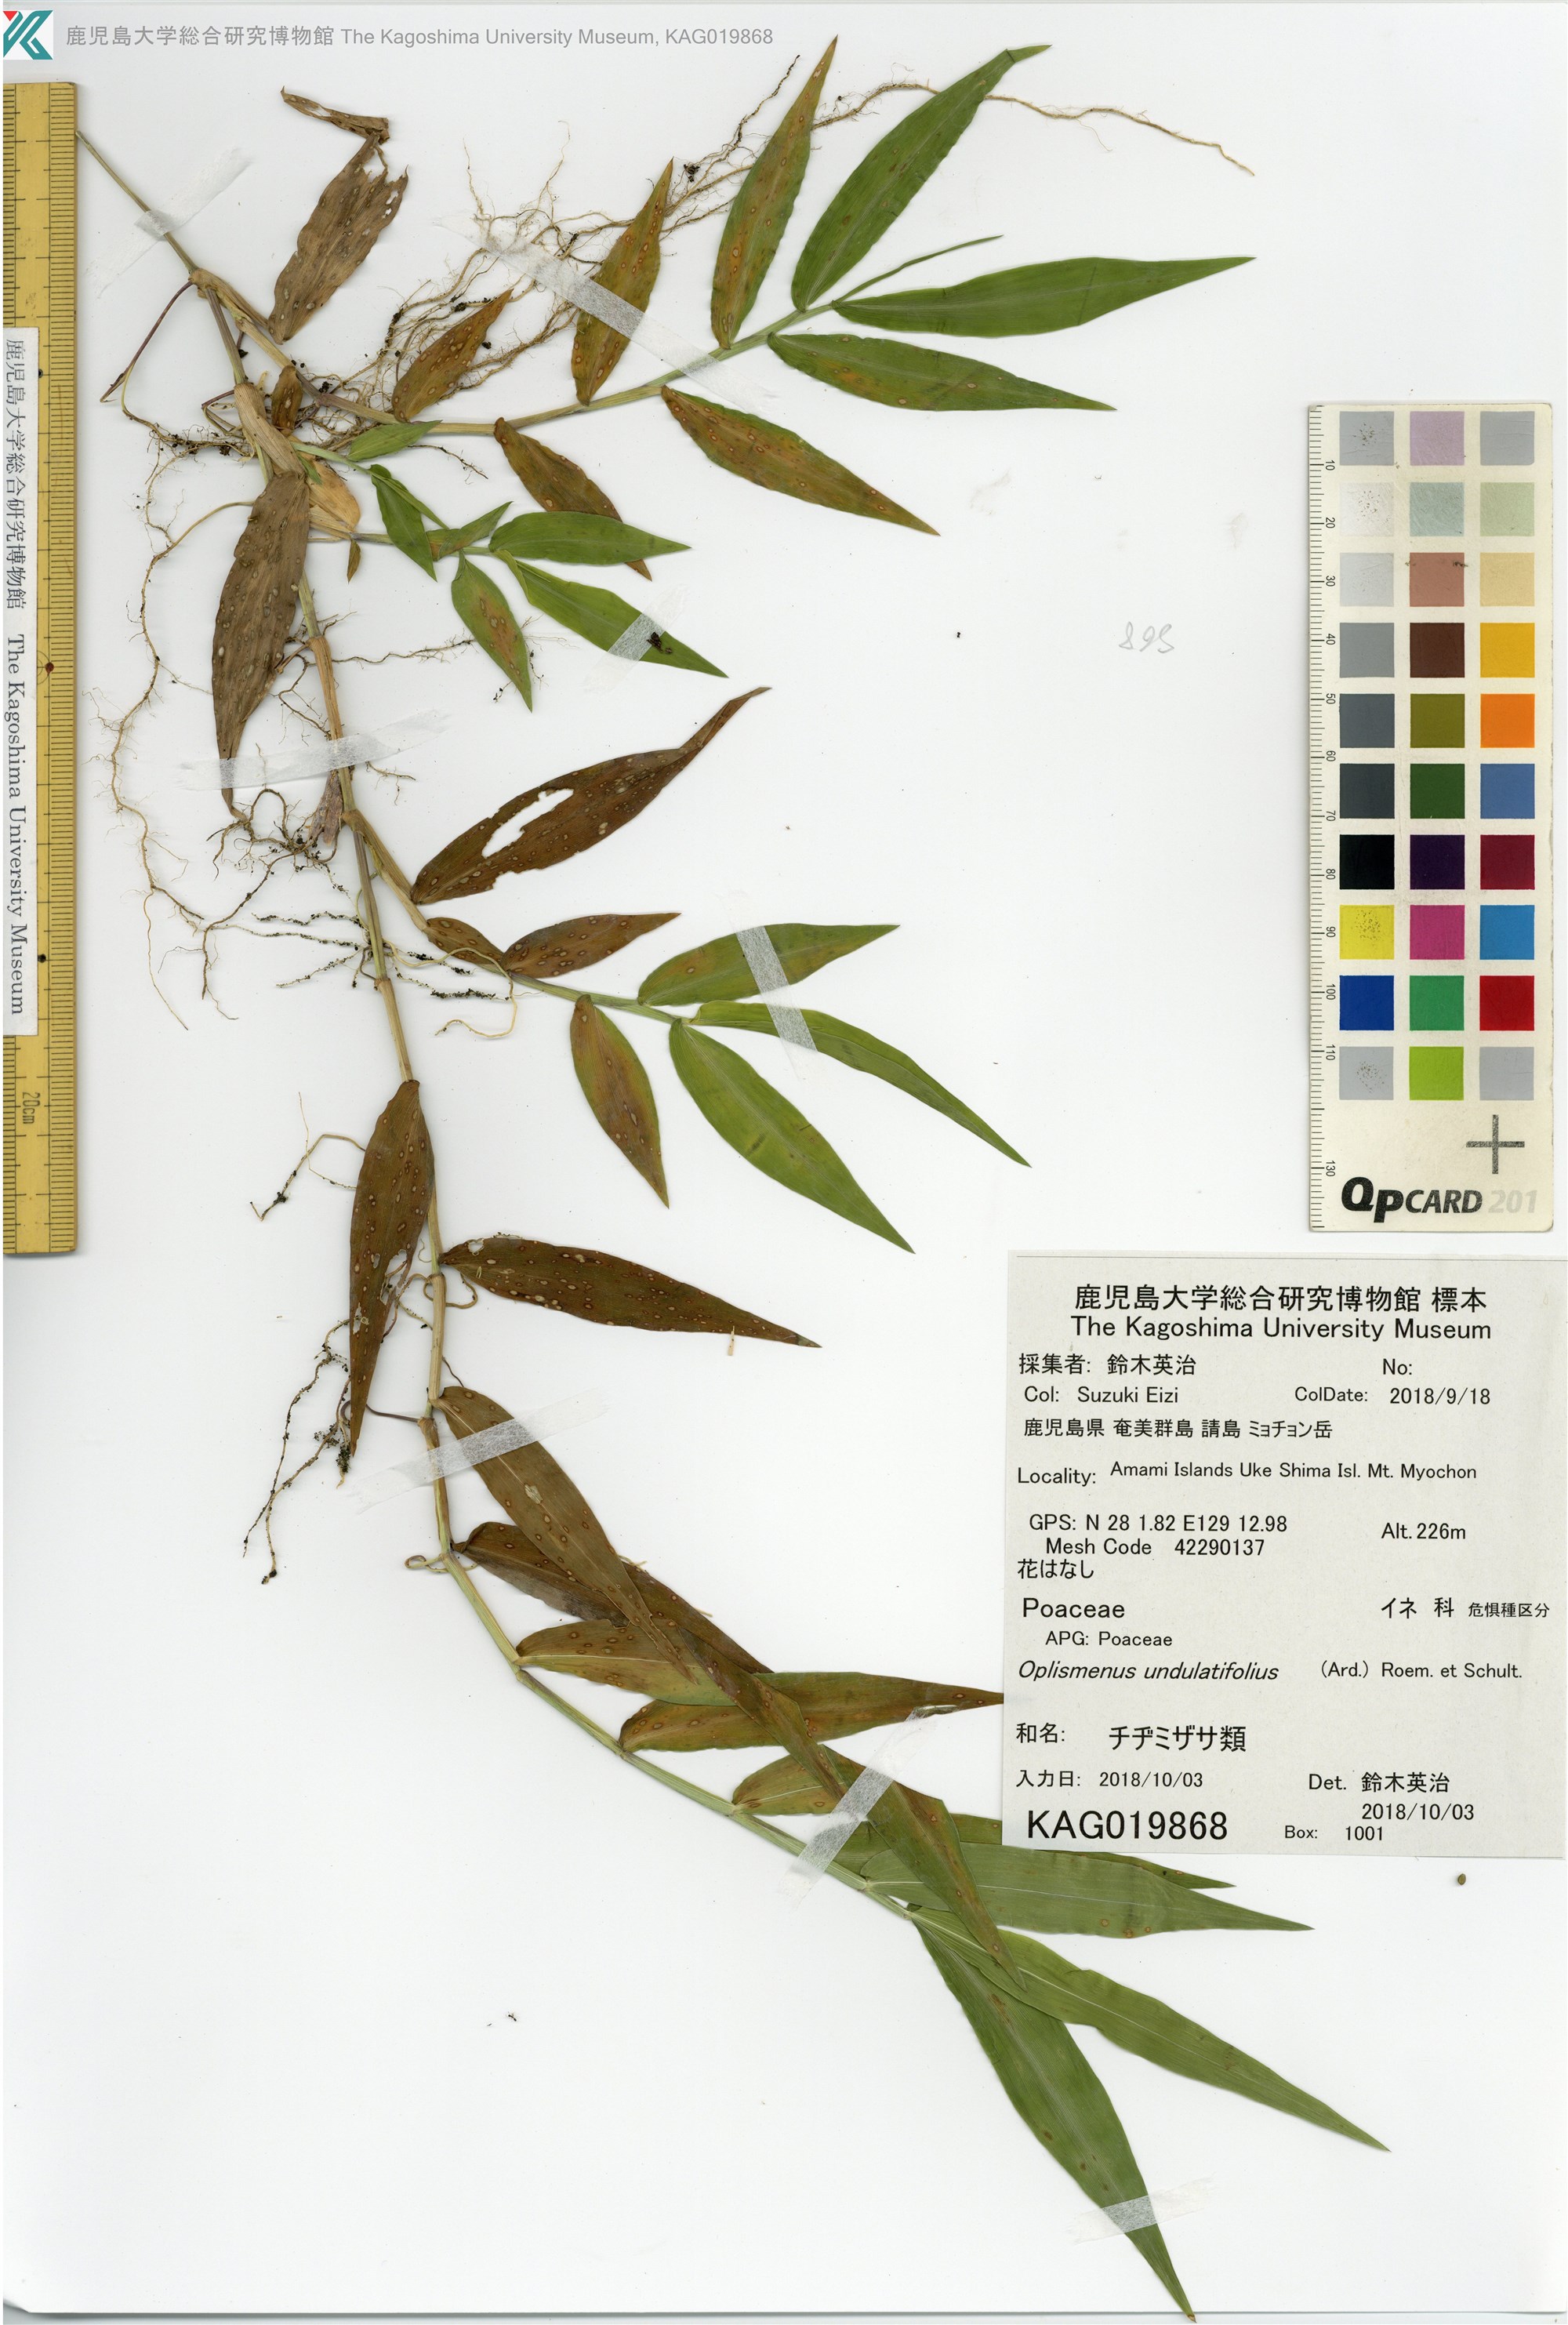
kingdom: Plantae
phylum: Tracheophyta
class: Liliopsida
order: Poales
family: Poaceae
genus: Oplismenus
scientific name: Oplismenus
